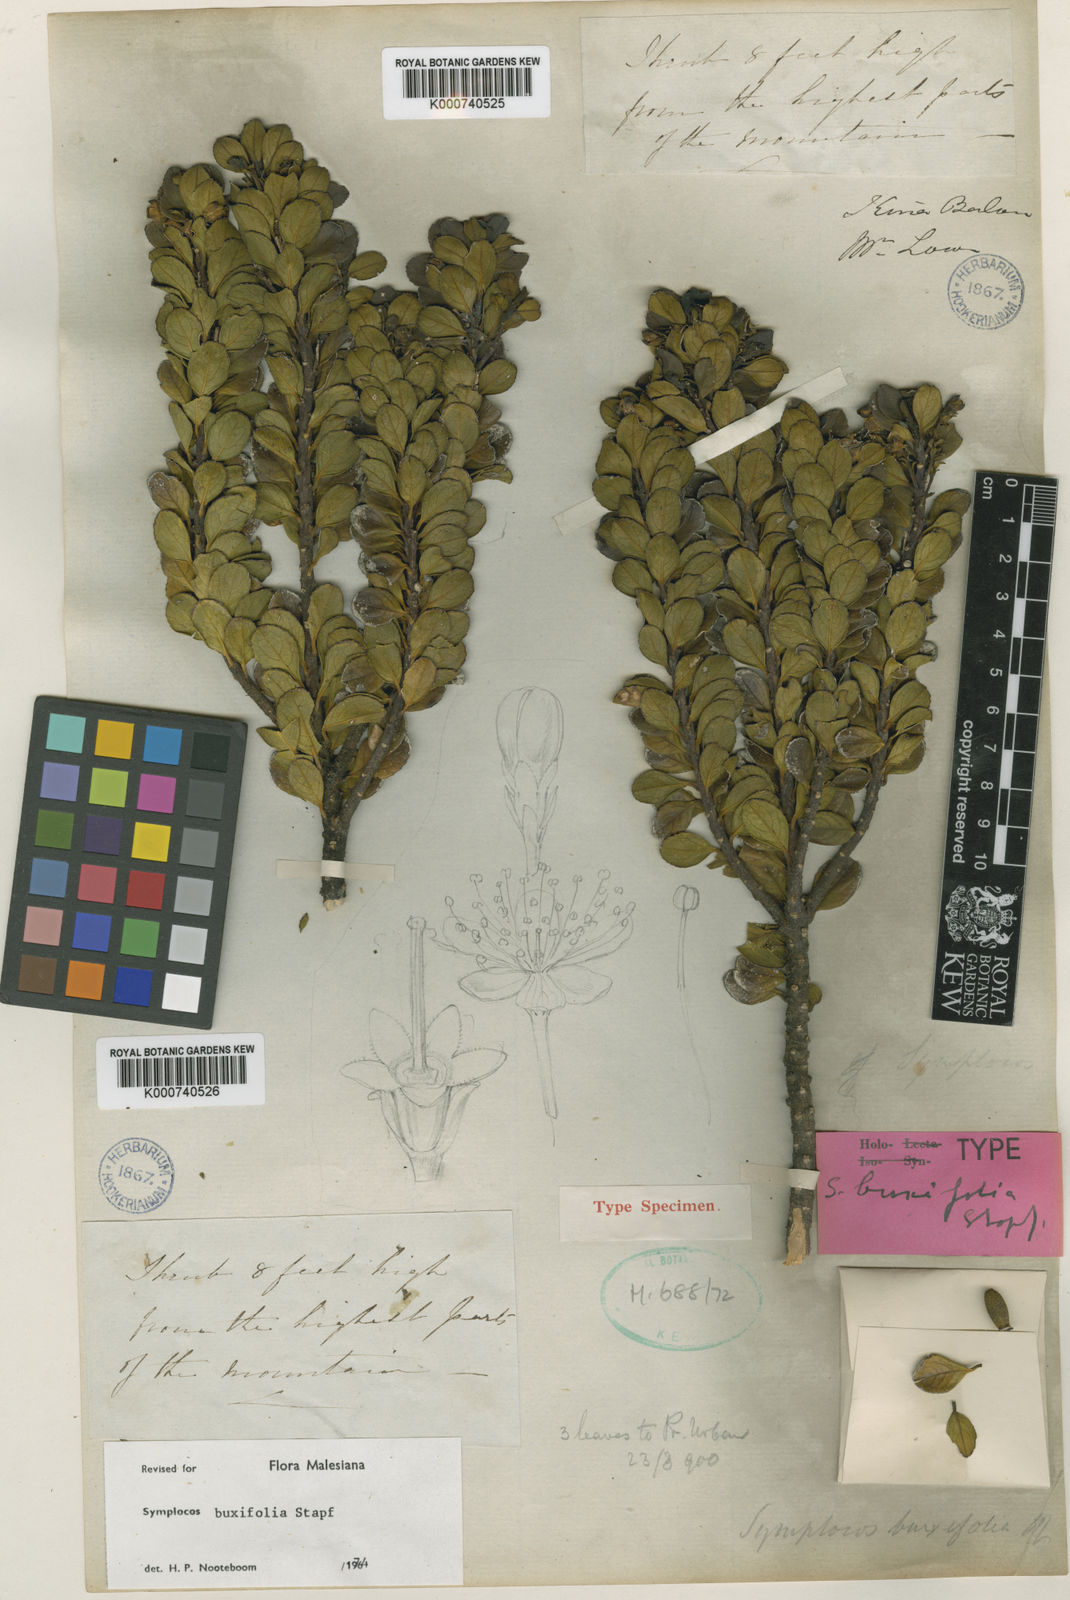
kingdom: Plantae
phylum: Tracheophyta
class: Magnoliopsida
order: Ericales
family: Symplocaceae
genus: Symplocos
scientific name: Symplocos buxifolia
